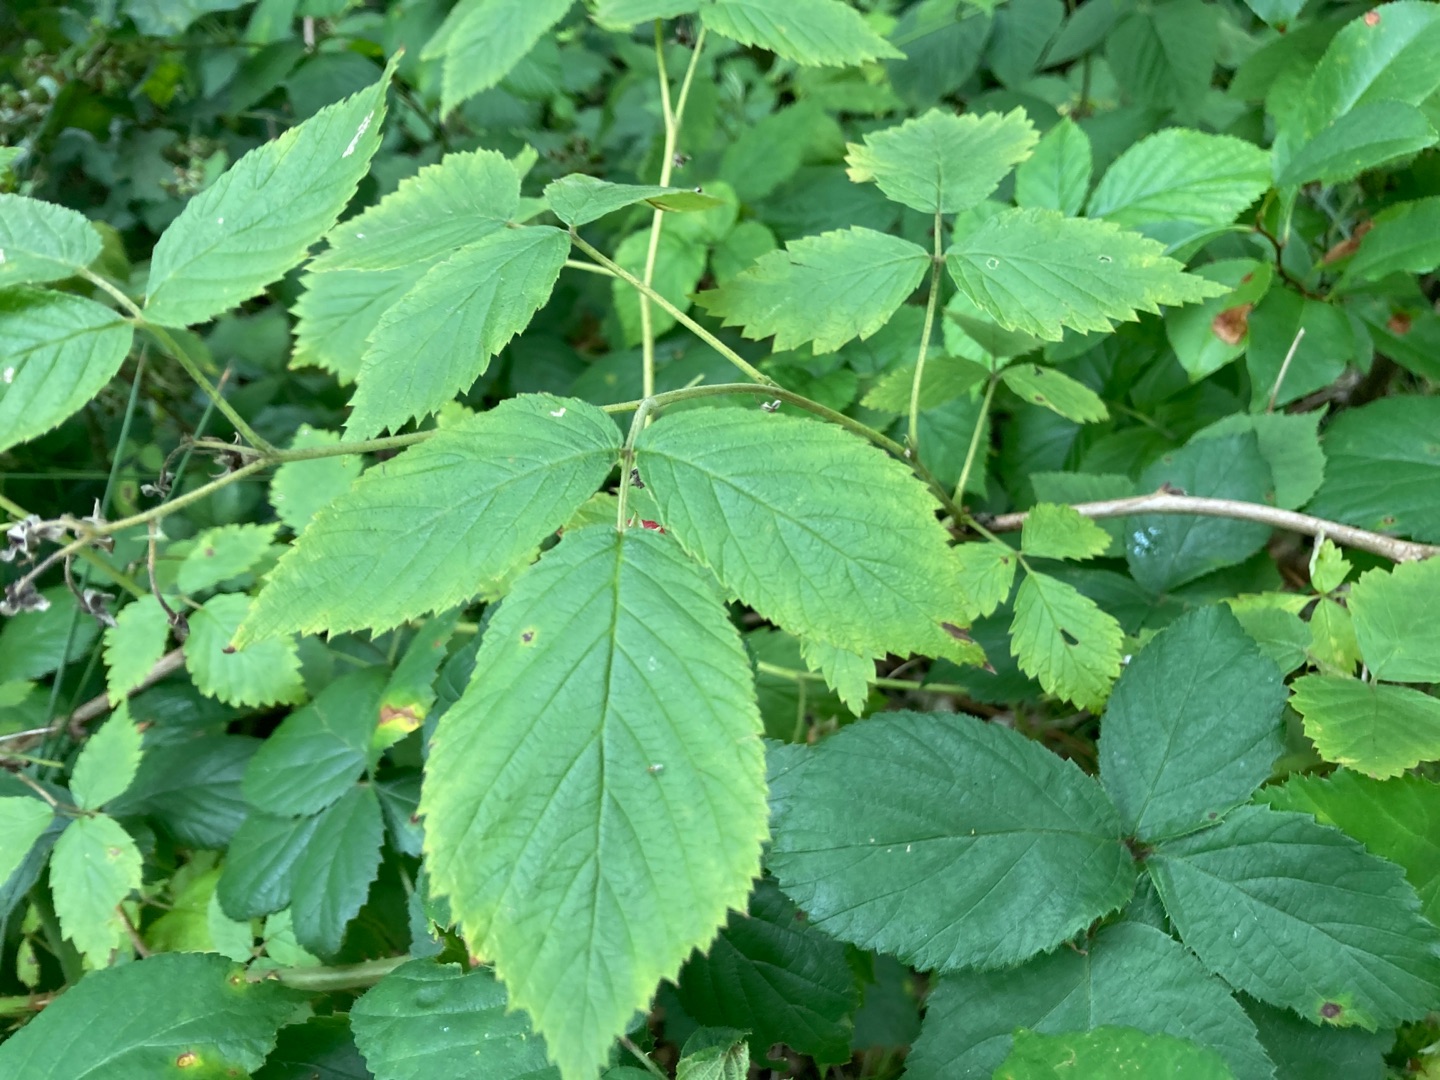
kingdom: Plantae
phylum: Tracheophyta
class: Magnoliopsida
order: Rosales
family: Rosaceae
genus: Rubus
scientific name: Rubus idaeus
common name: Hindbær
